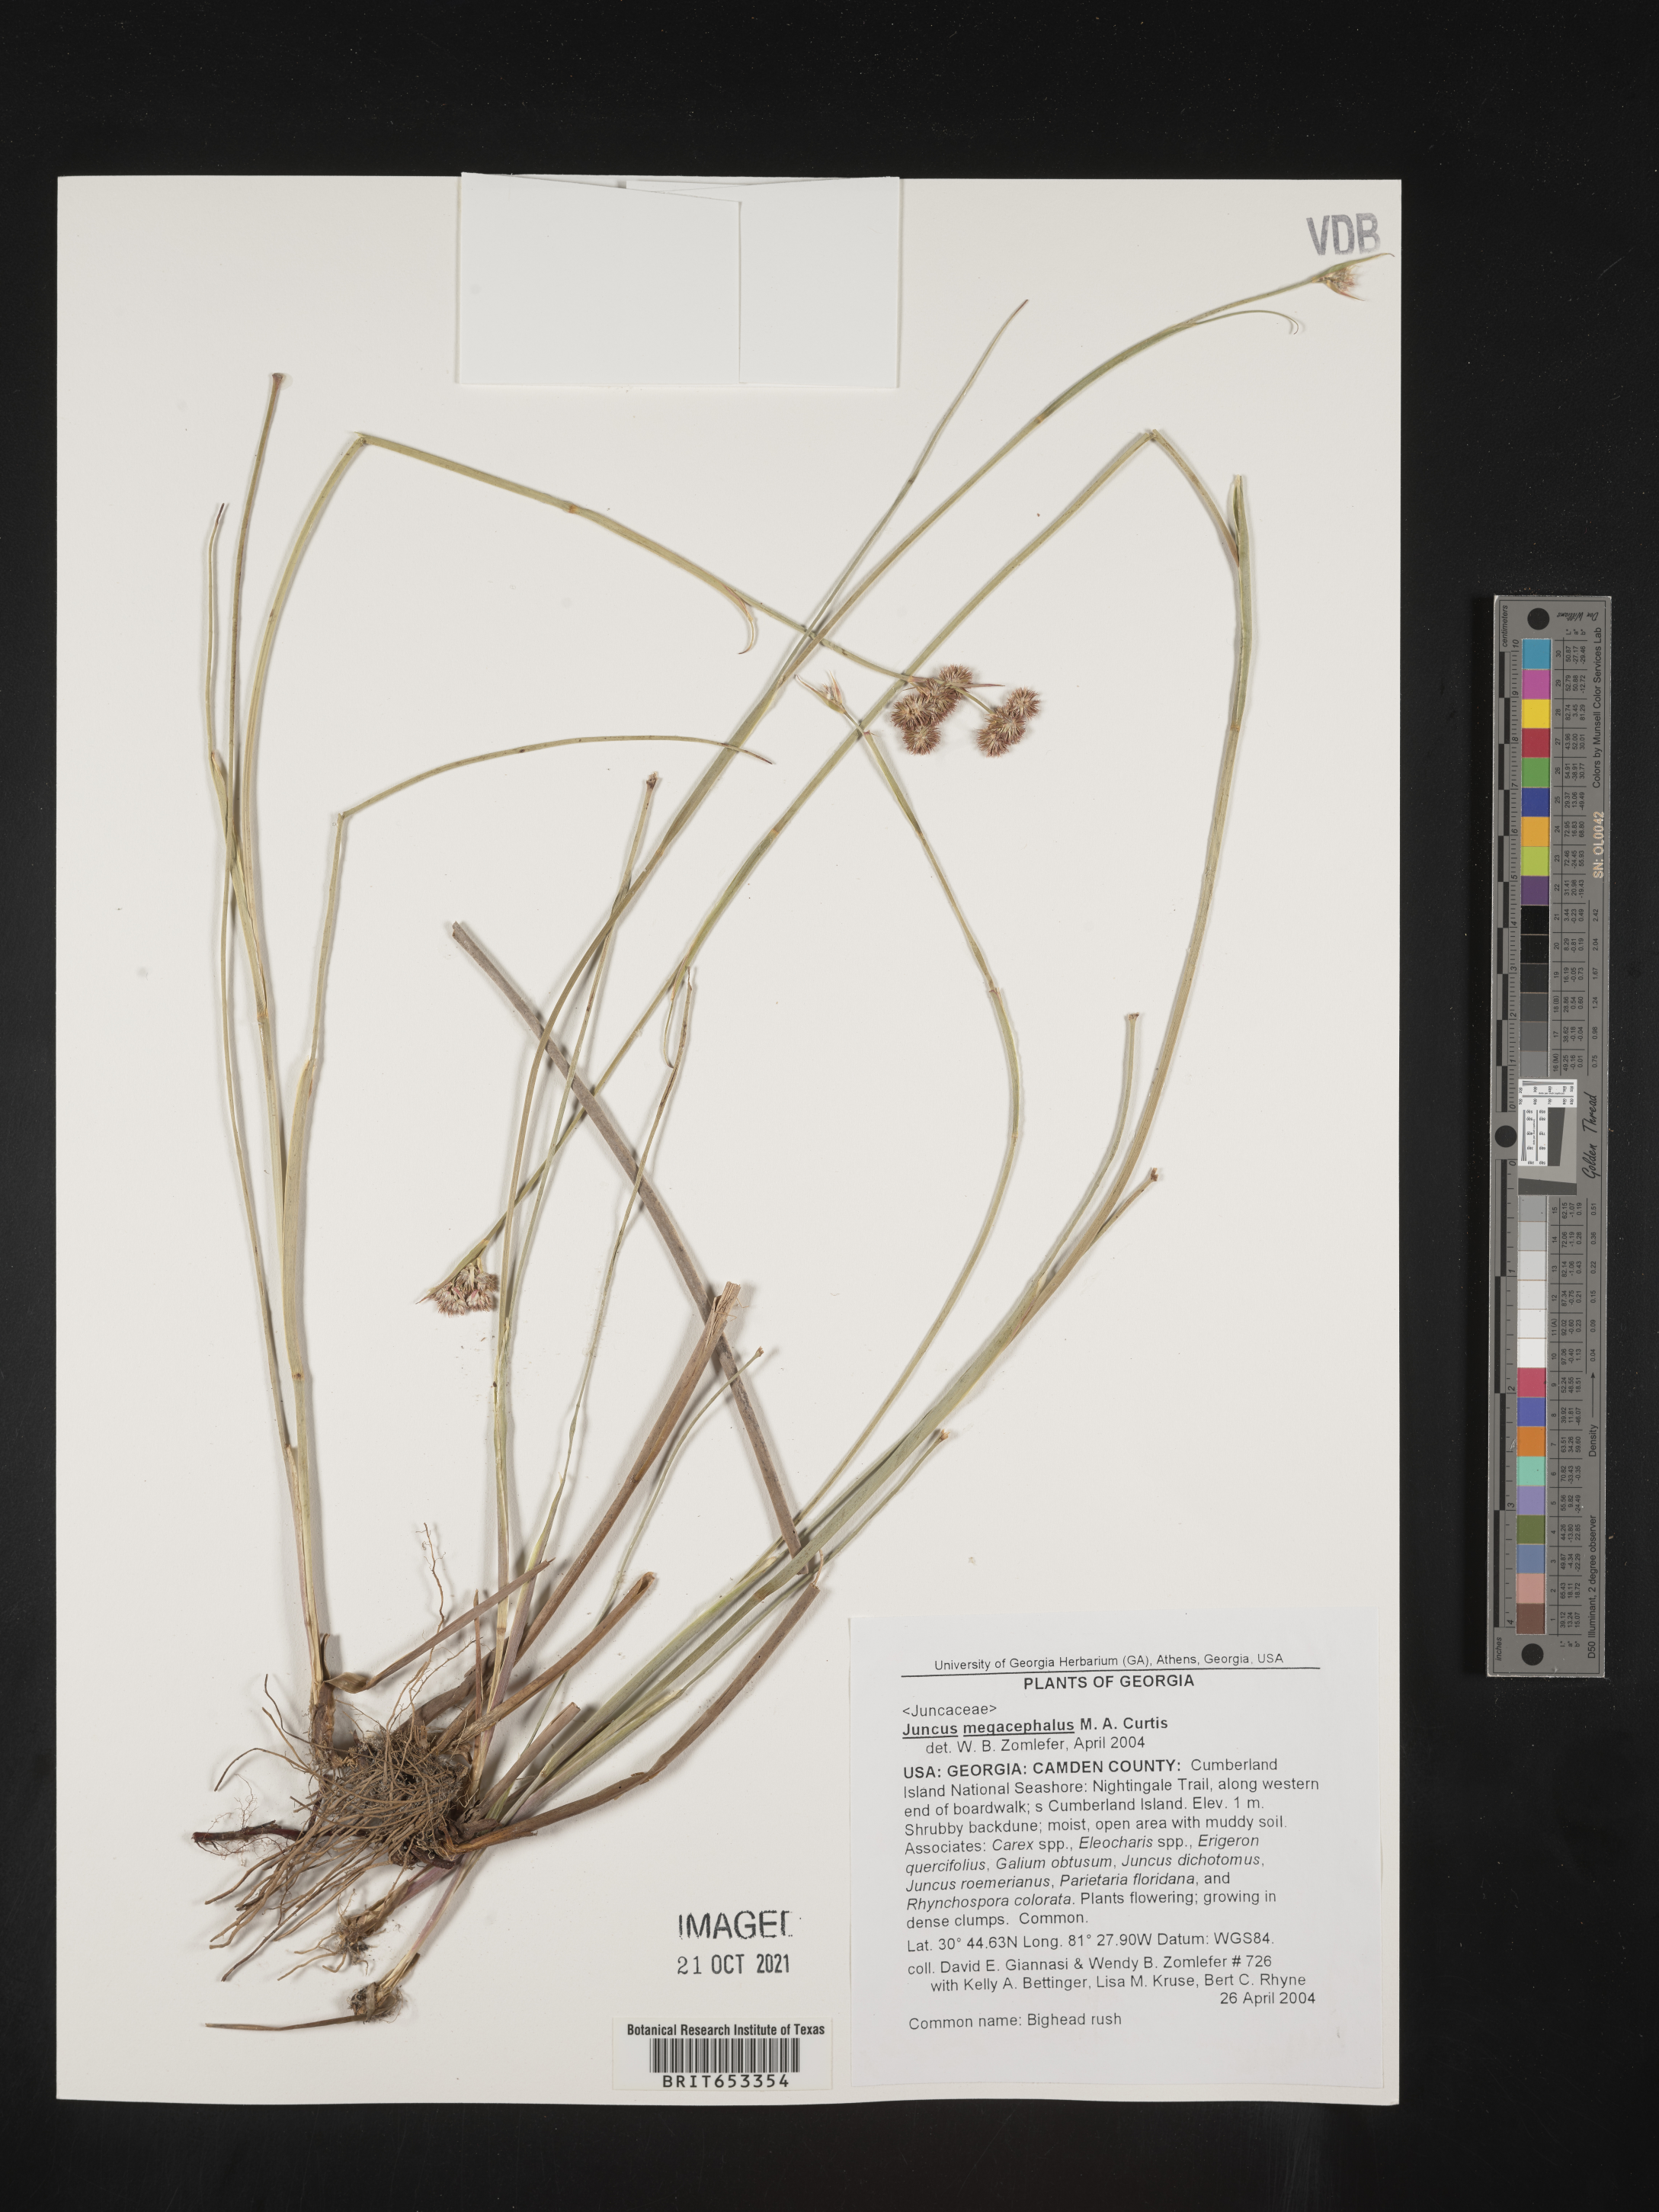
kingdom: Plantae
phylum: Tracheophyta
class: Liliopsida
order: Poales
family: Juncaceae
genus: Juncus
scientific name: Juncus megacephalus
